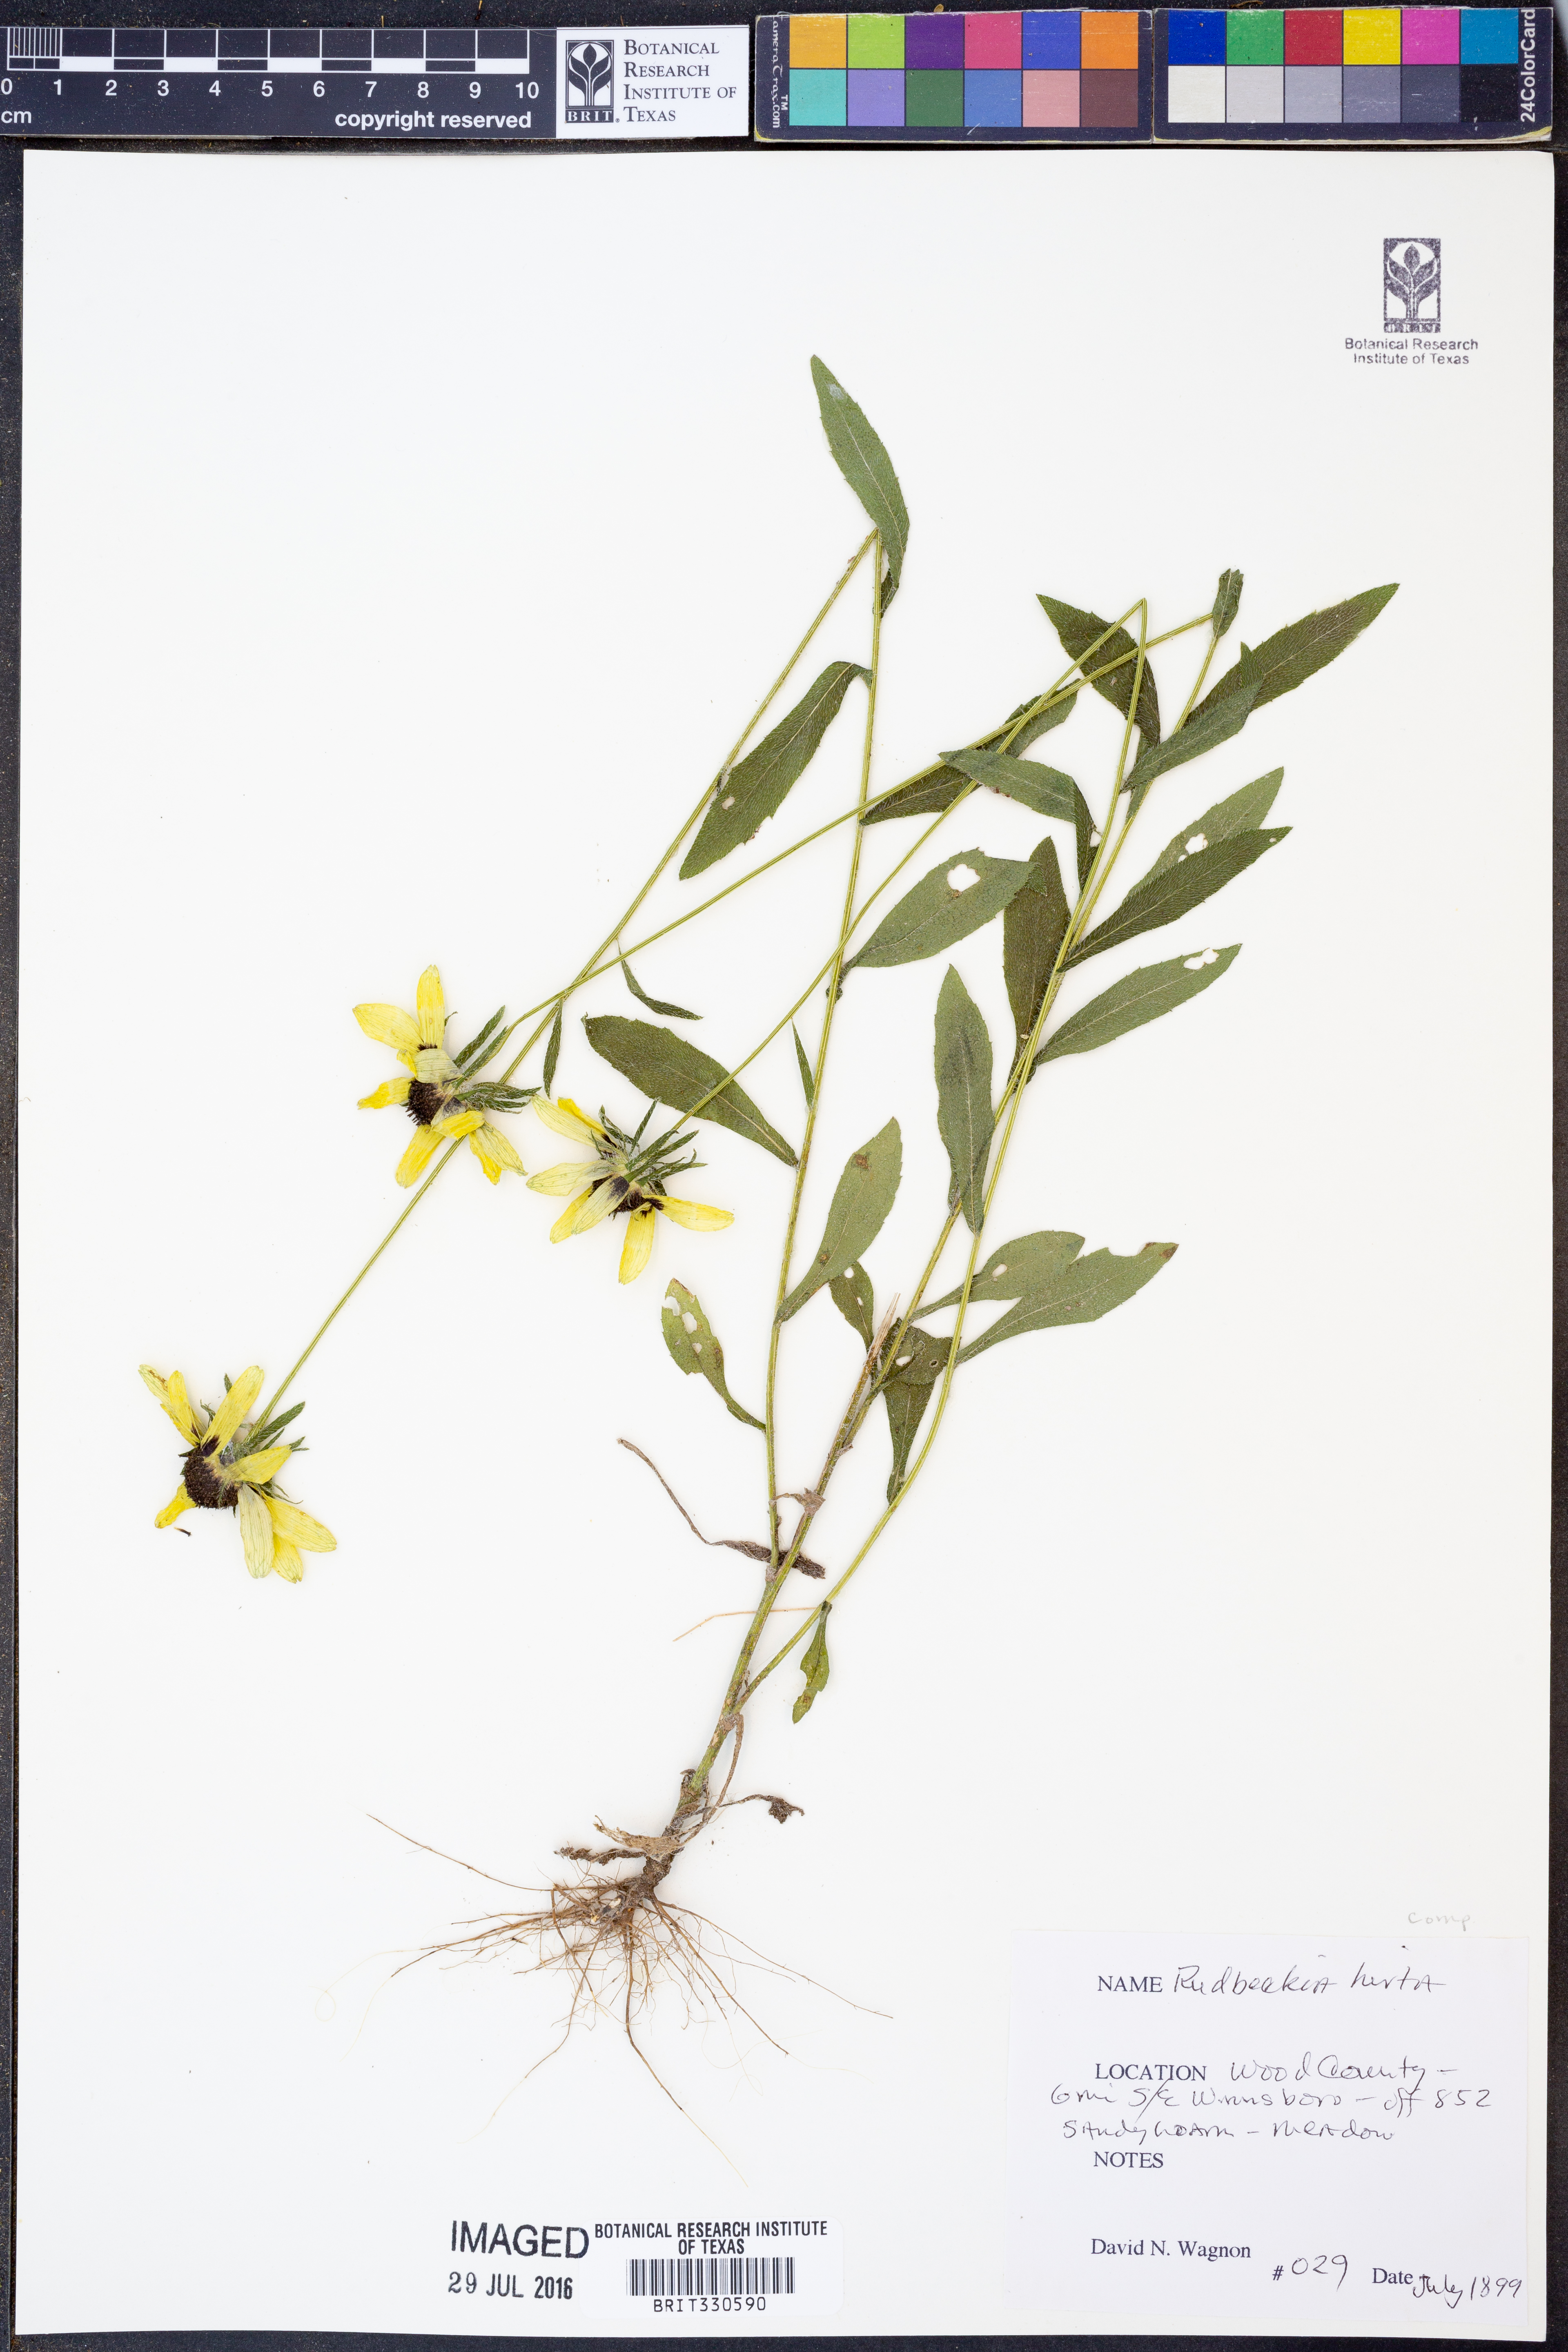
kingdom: Plantae
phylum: Tracheophyta
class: Magnoliopsida
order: Asterales
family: Asteraceae
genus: Rudbeckia
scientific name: Rudbeckia hirta
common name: Black-eyed-susan
